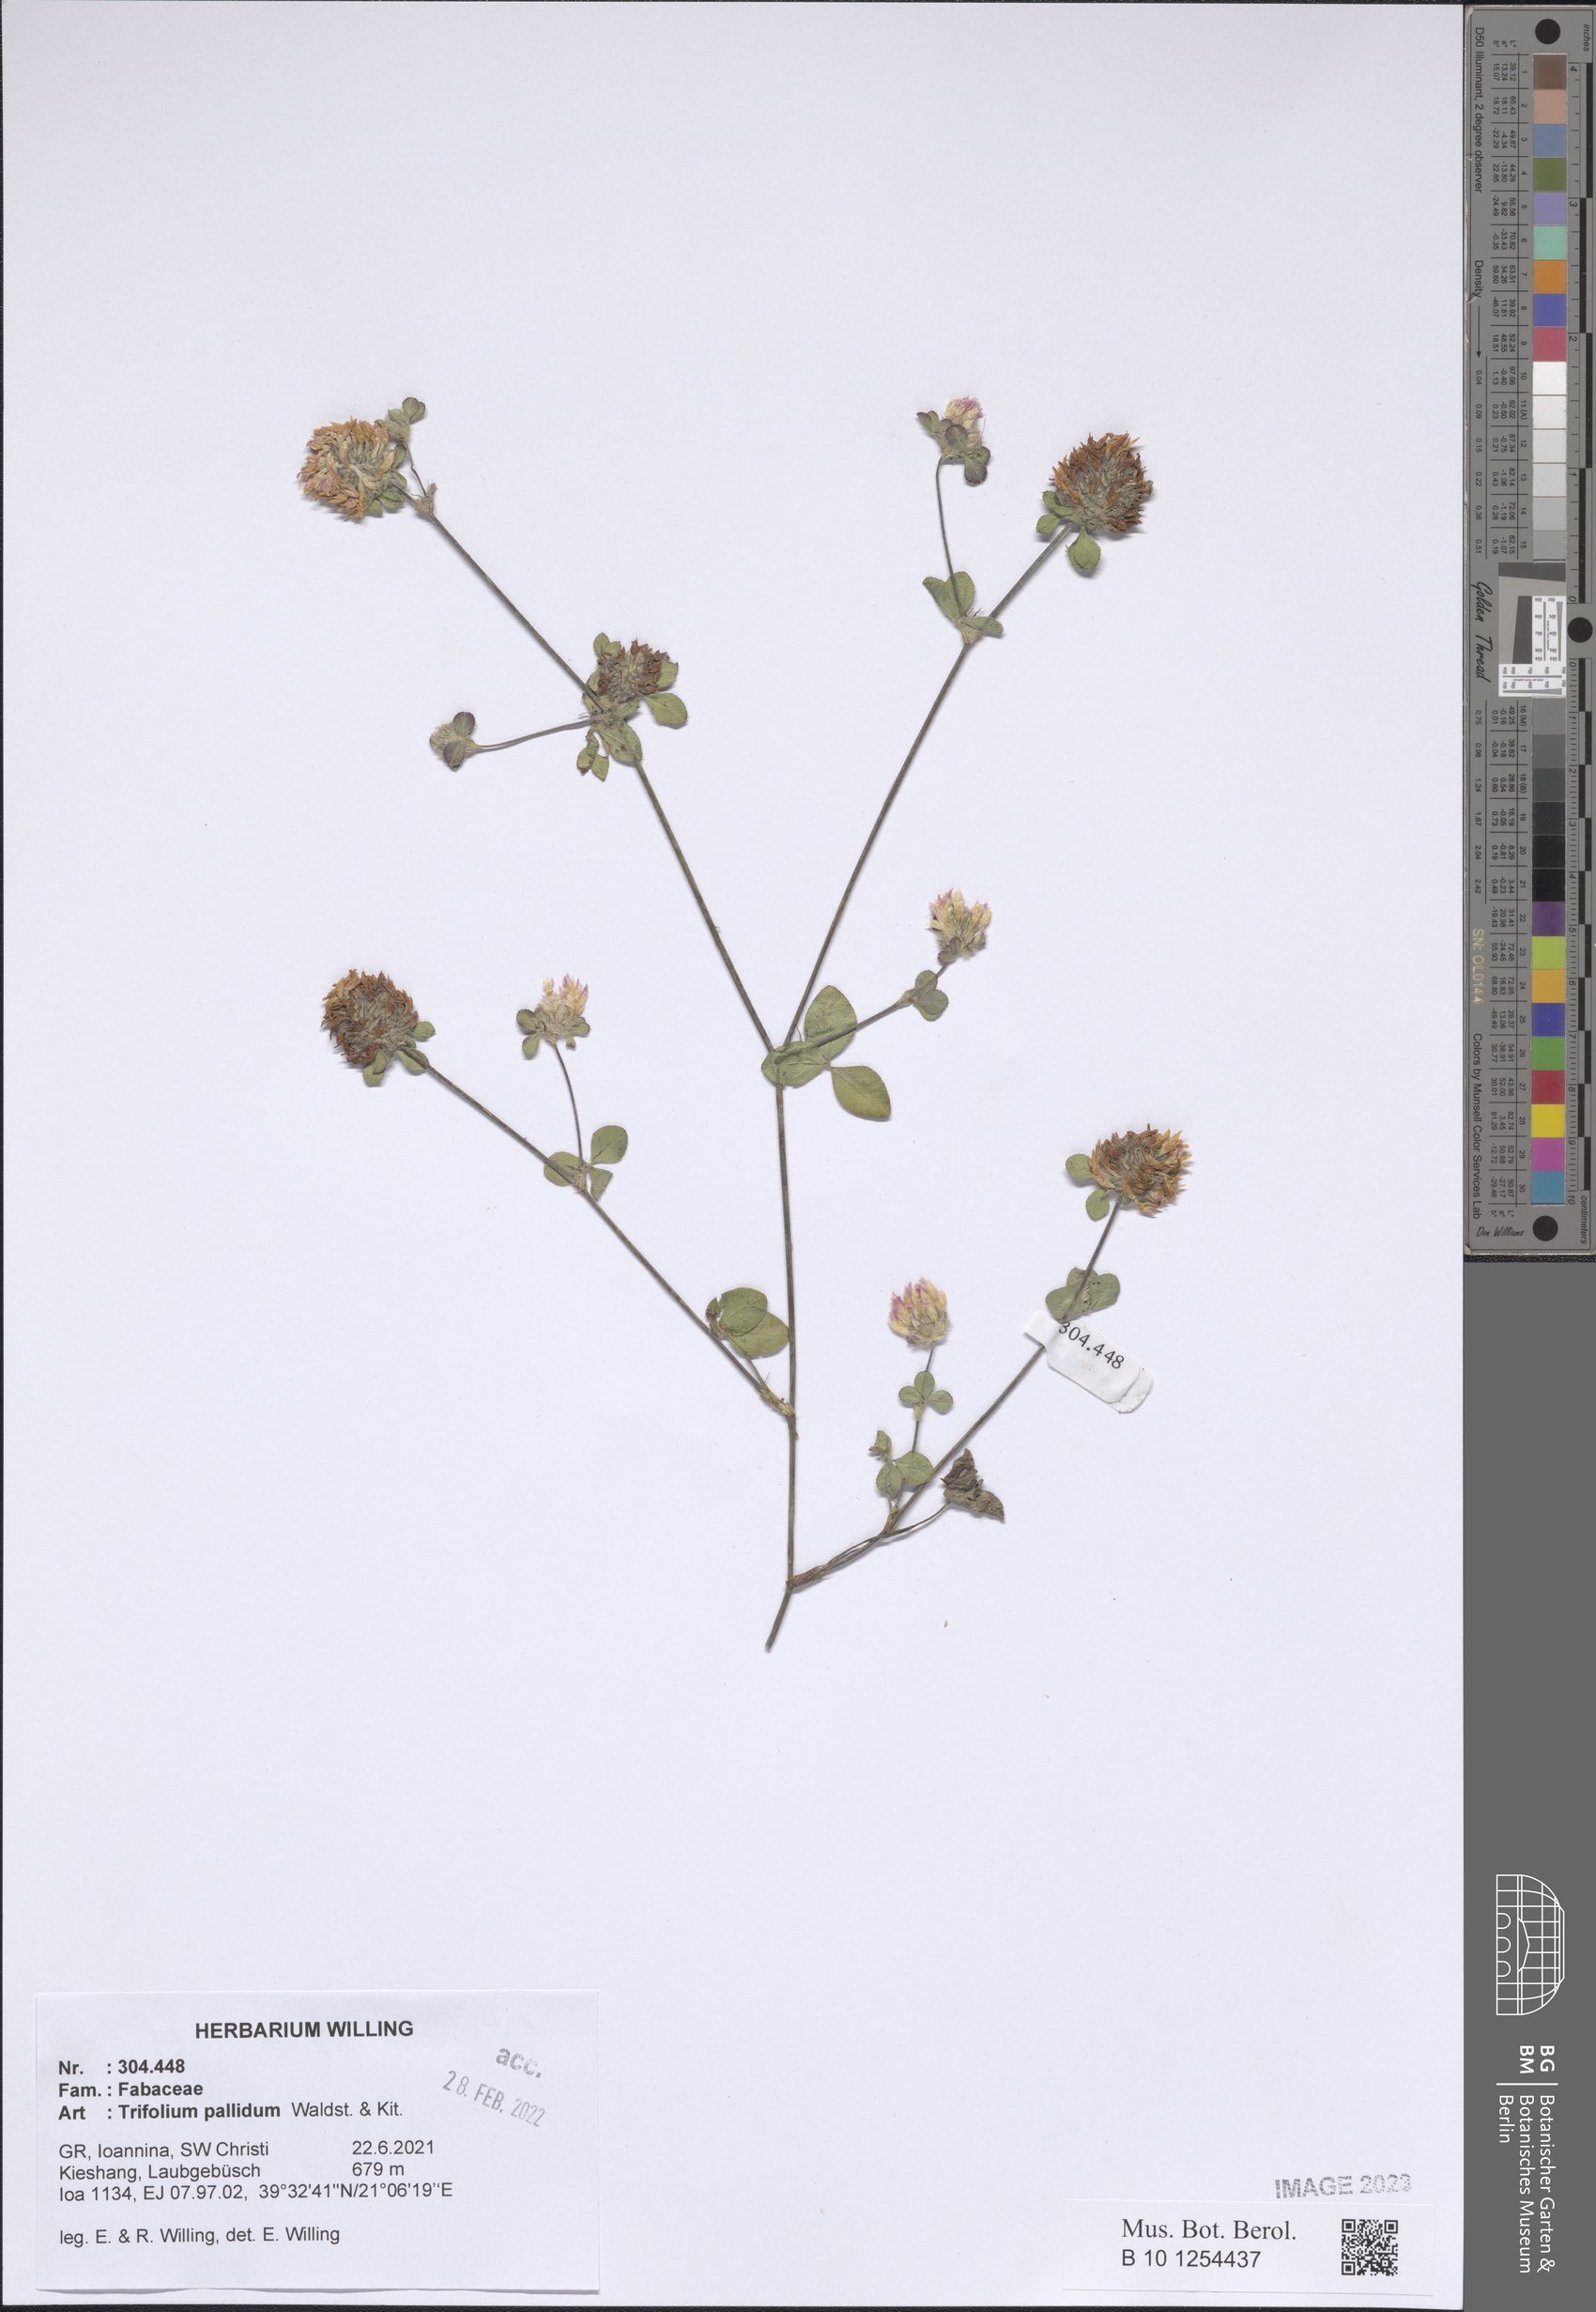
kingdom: Plantae
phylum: Tracheophyta
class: Magnoliopsida
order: Fabales
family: Fabaceae
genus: Trifolium
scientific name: Trifolium pallidum
